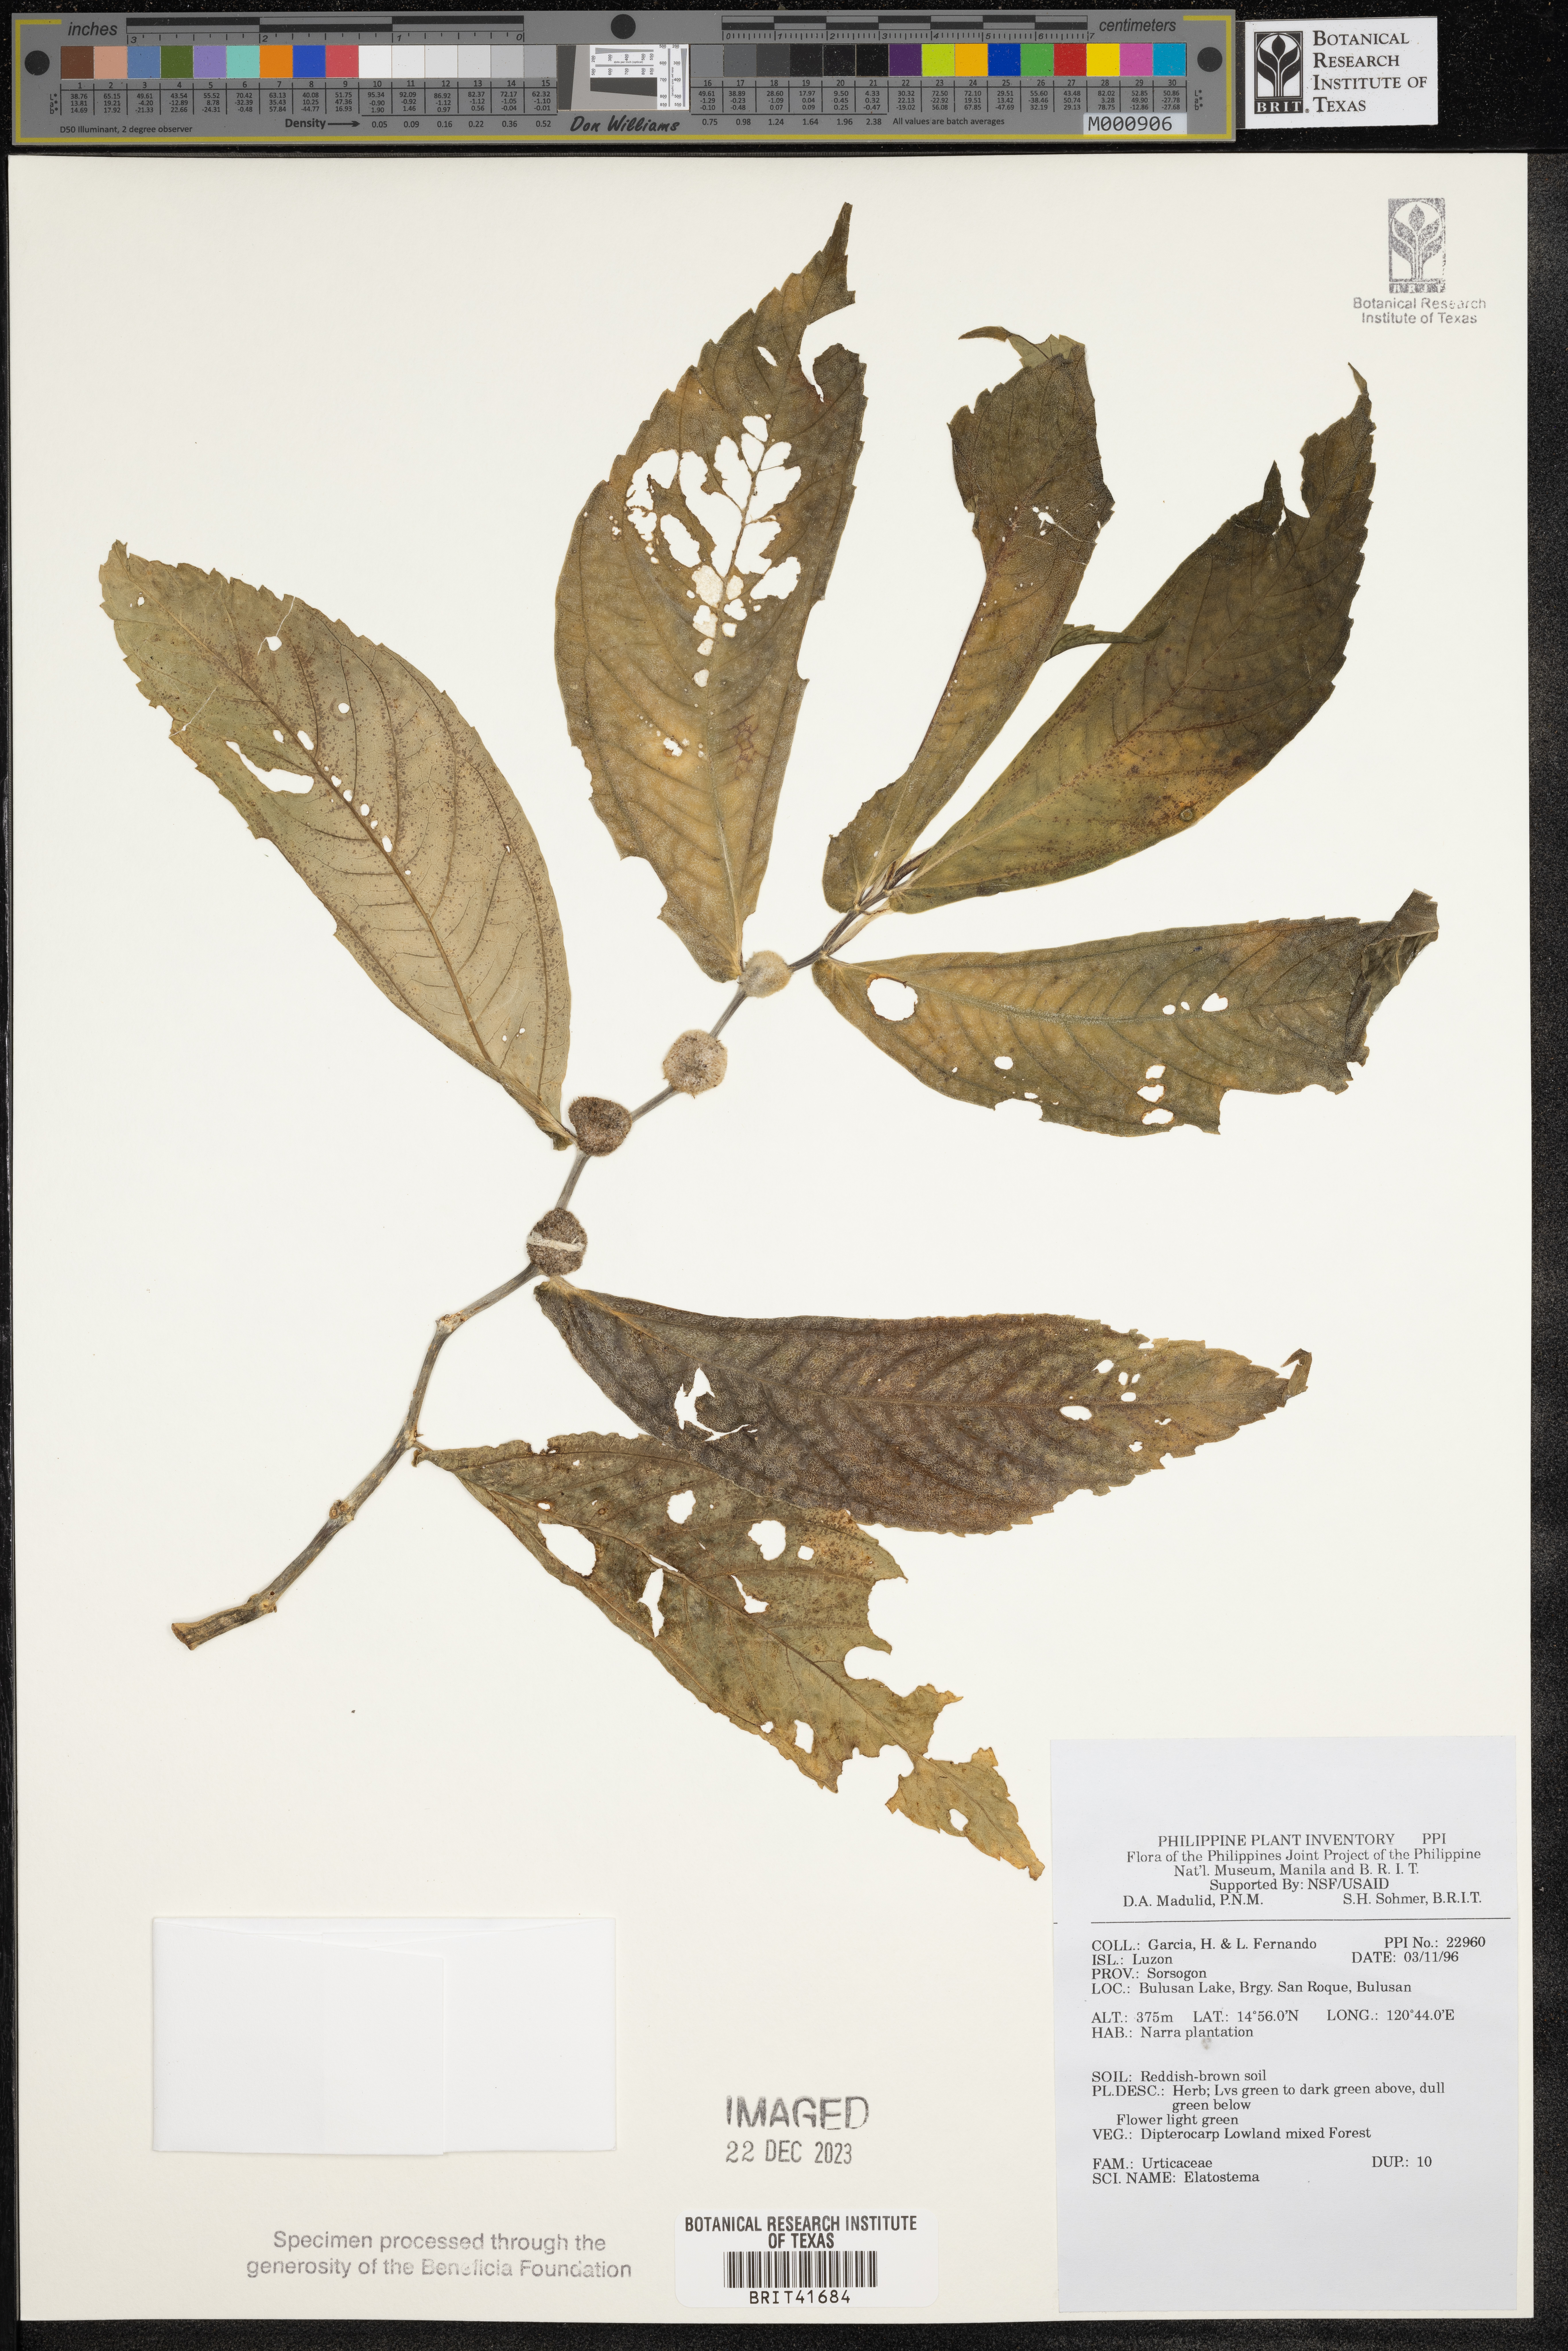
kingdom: Plantae
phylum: Tracheophyta
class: Magnoliopsida
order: Rosales
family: Urticaceae
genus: Elatostema
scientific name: Elatostema
